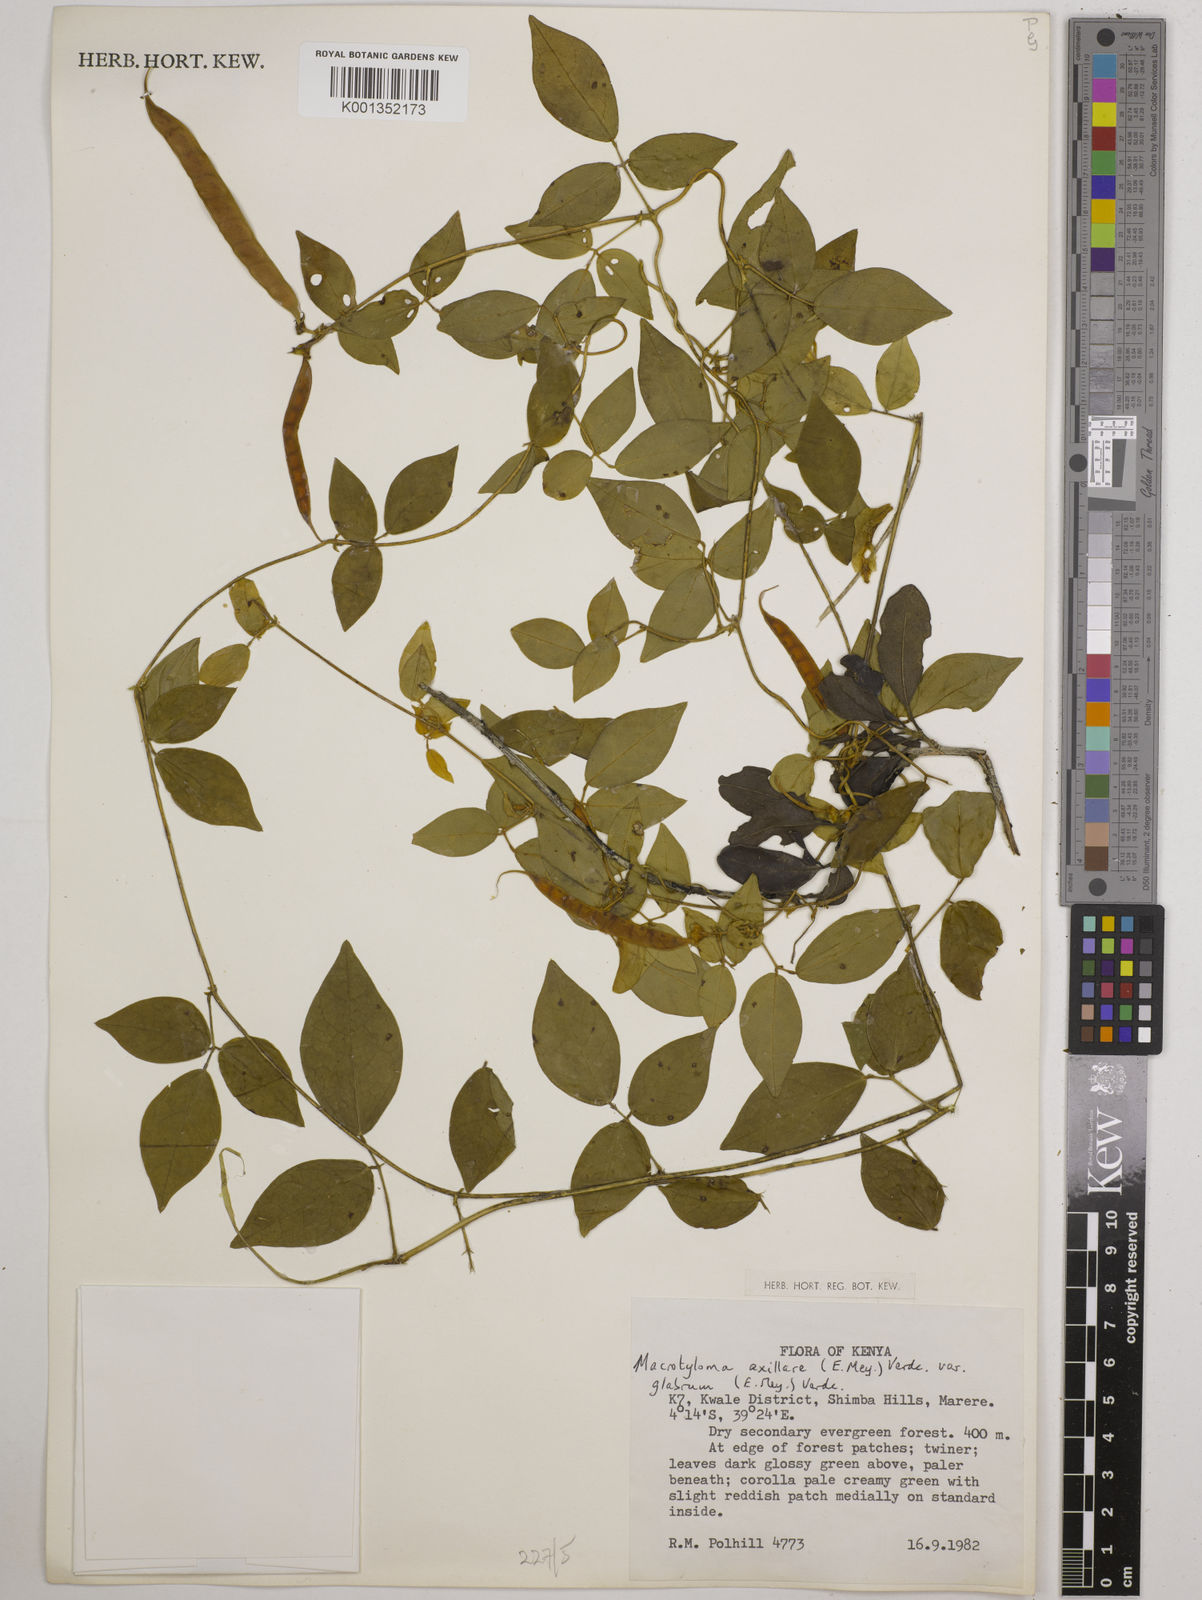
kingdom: Plantae
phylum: Tracheophyta
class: Magnoliopsida
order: Fabales
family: Fabaceae
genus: Macrotyloma
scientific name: Macrotyloma
